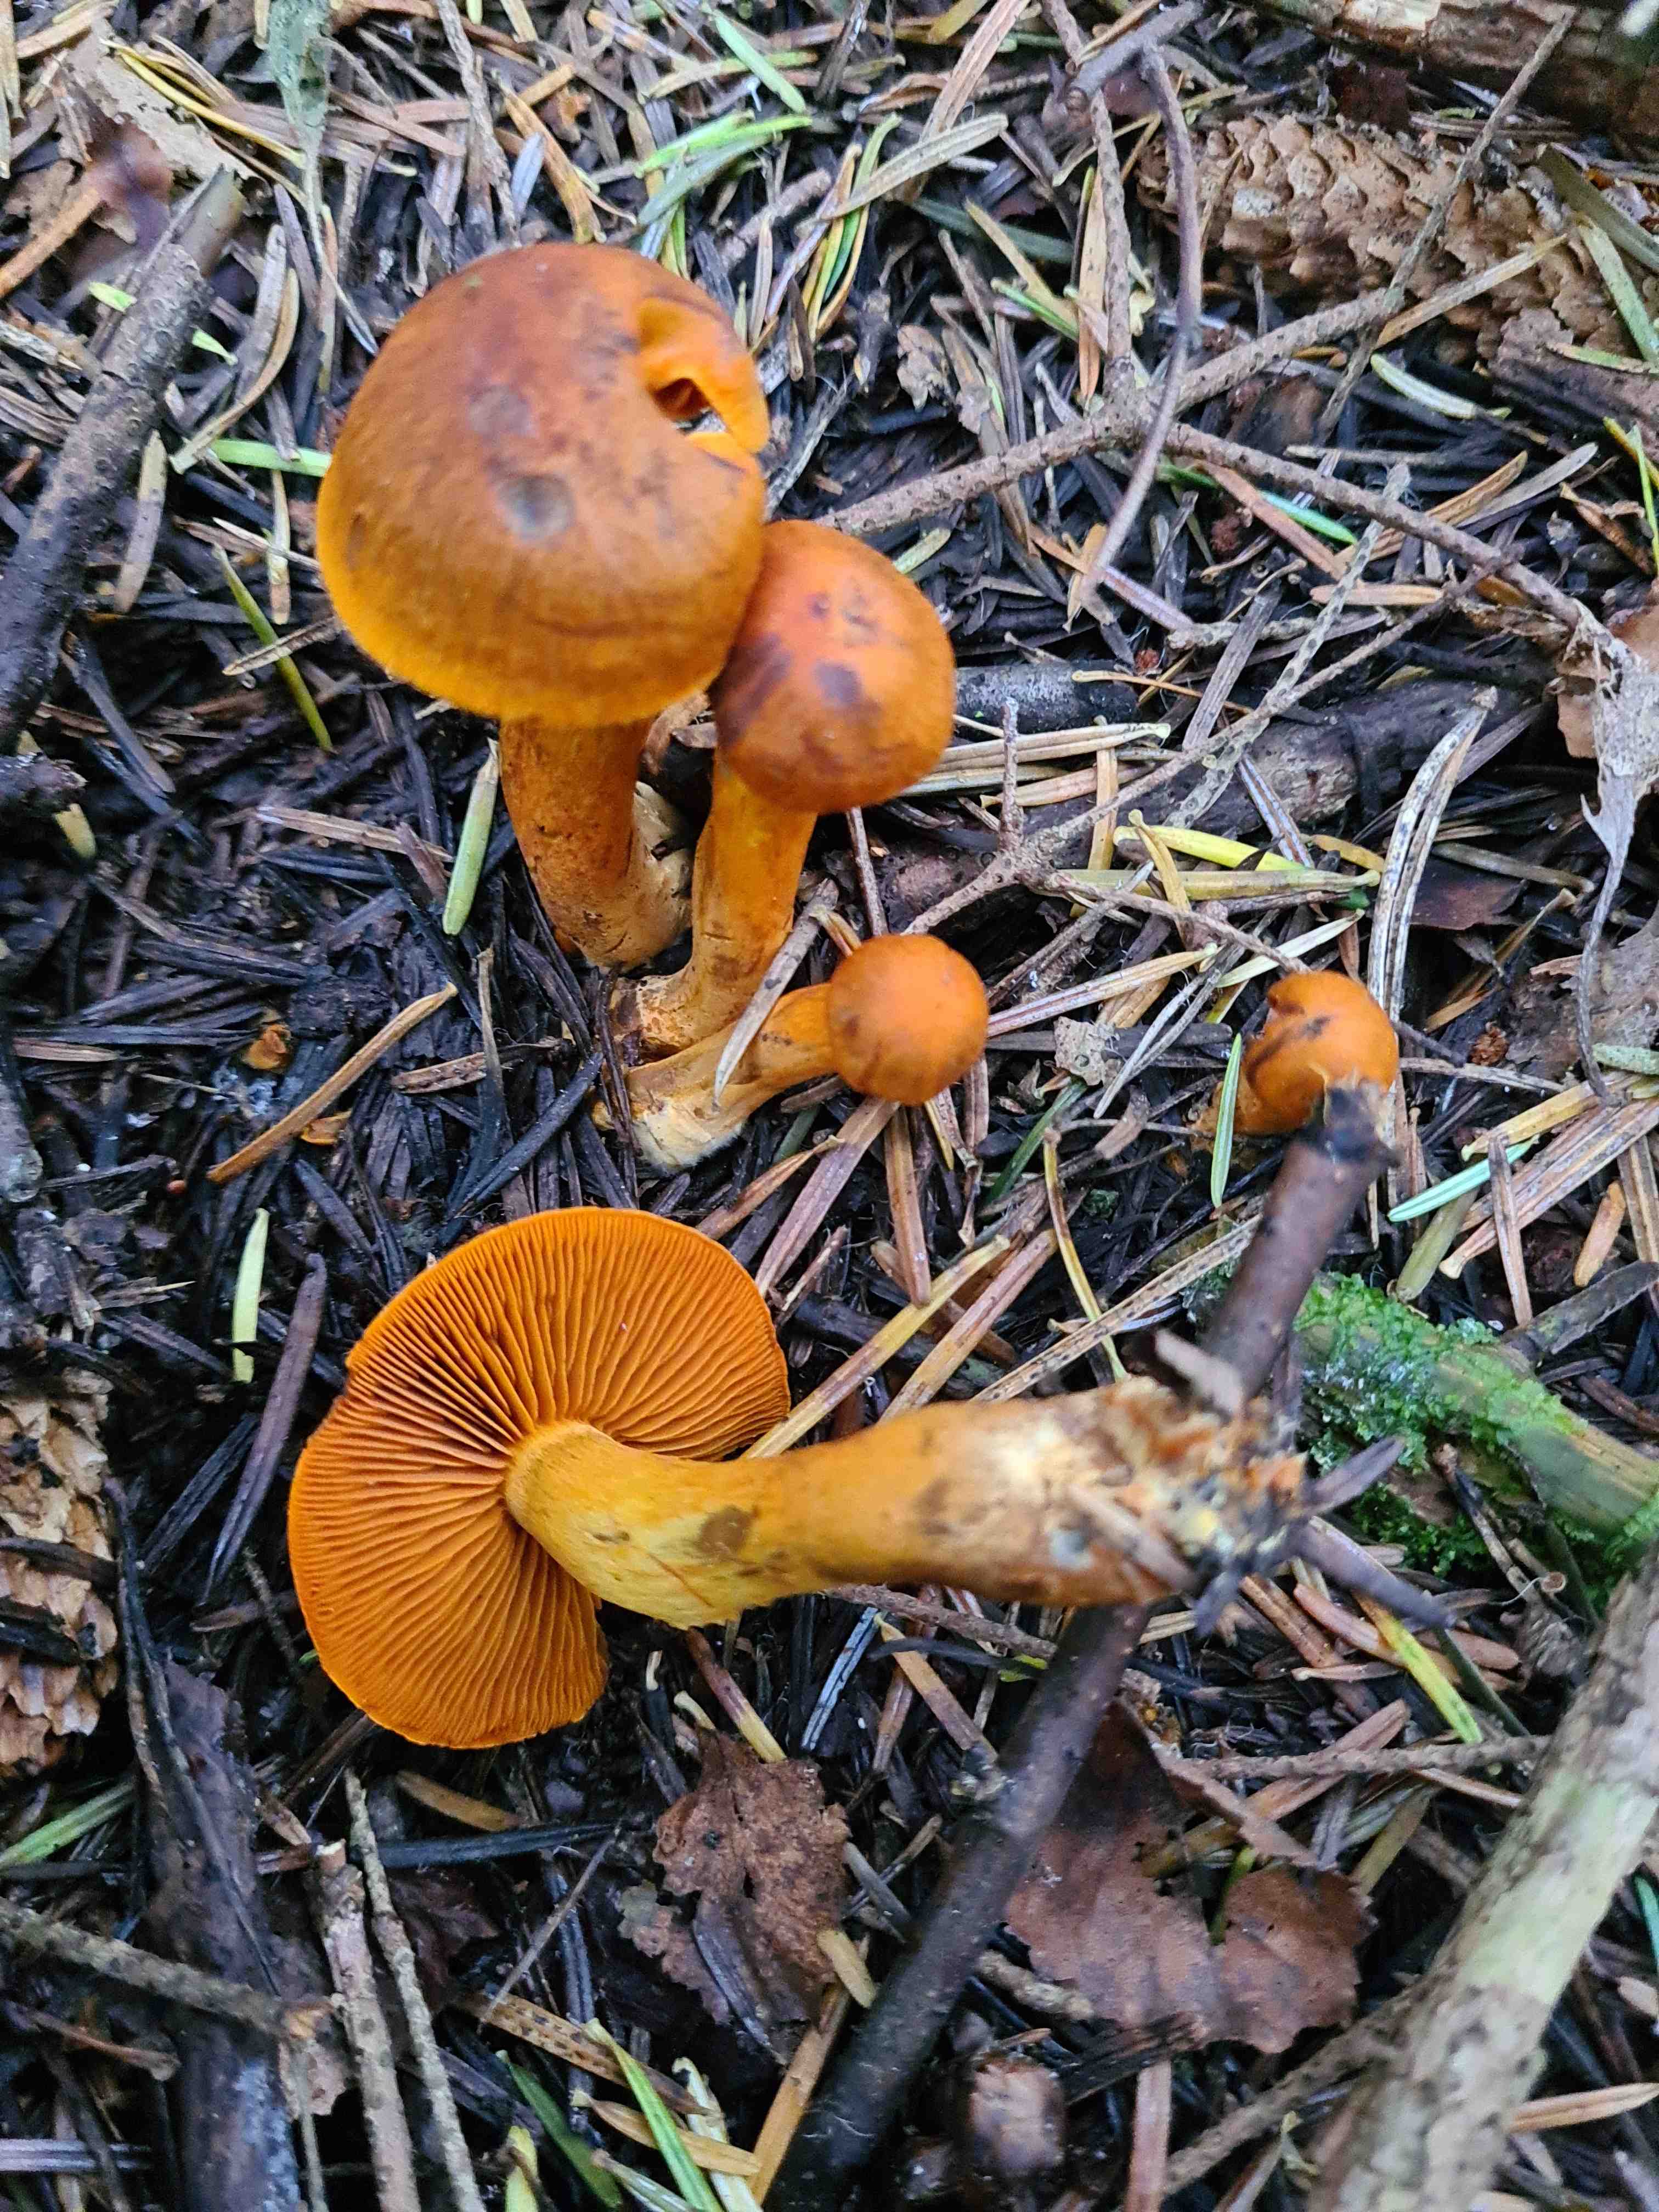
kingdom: Fungi
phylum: Basidiomycota
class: Agaricomycetes
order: Agaricales
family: Cortinariaceae
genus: Cortinarius
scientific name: Cortinarius malicorius
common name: grønkødet slørhat
